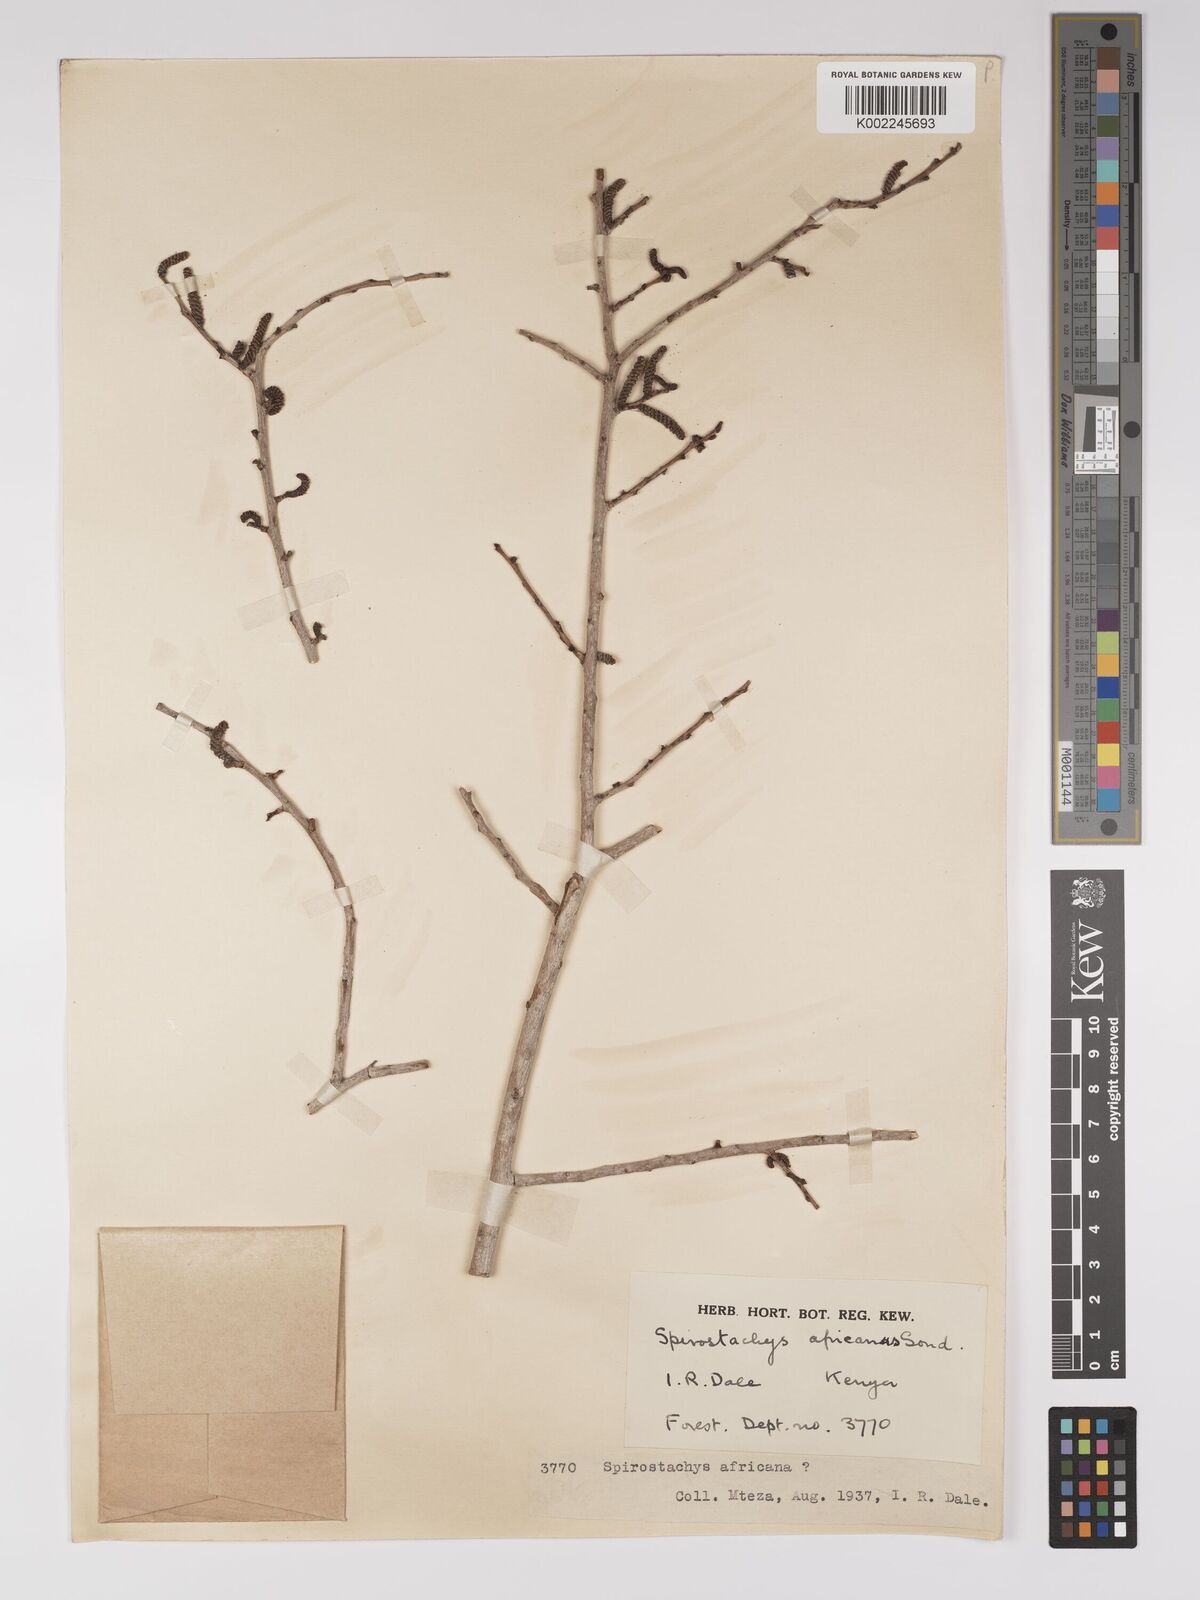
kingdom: Plantae
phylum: Tracheophyta
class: Magnoliopsida
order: Malpighiales
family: Euphorbiaceae
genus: Spirostachys
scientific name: Spirostachys africana
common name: Tamboti
